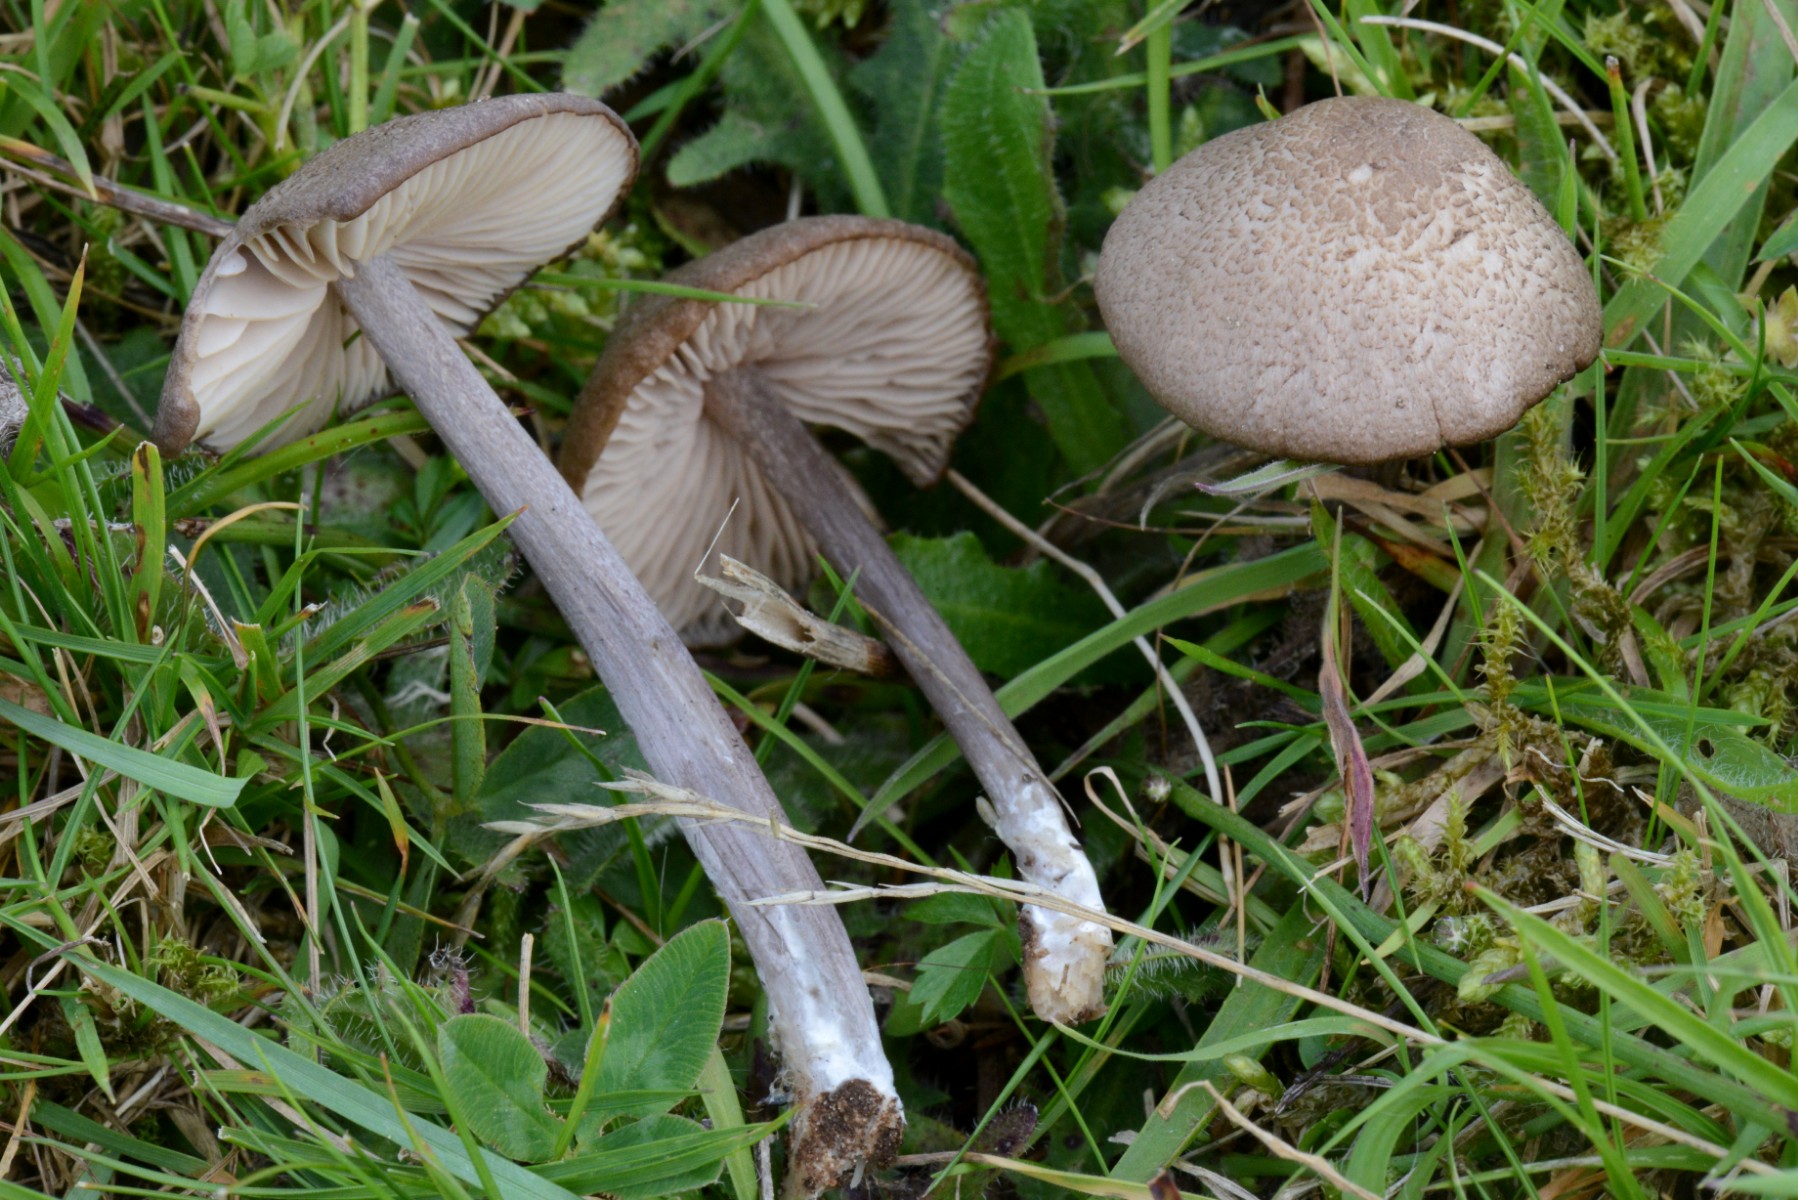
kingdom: Fungi
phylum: Basidiomycota
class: Agaricomycetes
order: Agaricales
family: Entolomataceae
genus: Entoloma
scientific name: Entoloma griseocyaneum
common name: gråblå rødblad
